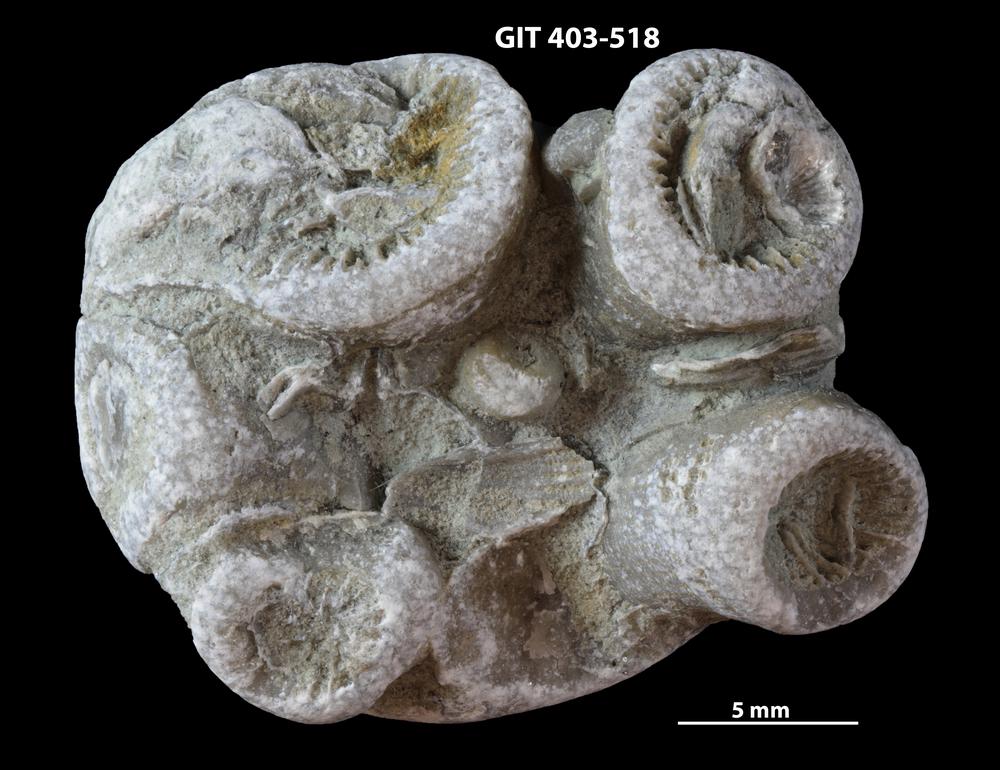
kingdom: Animalia
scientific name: Animalia
